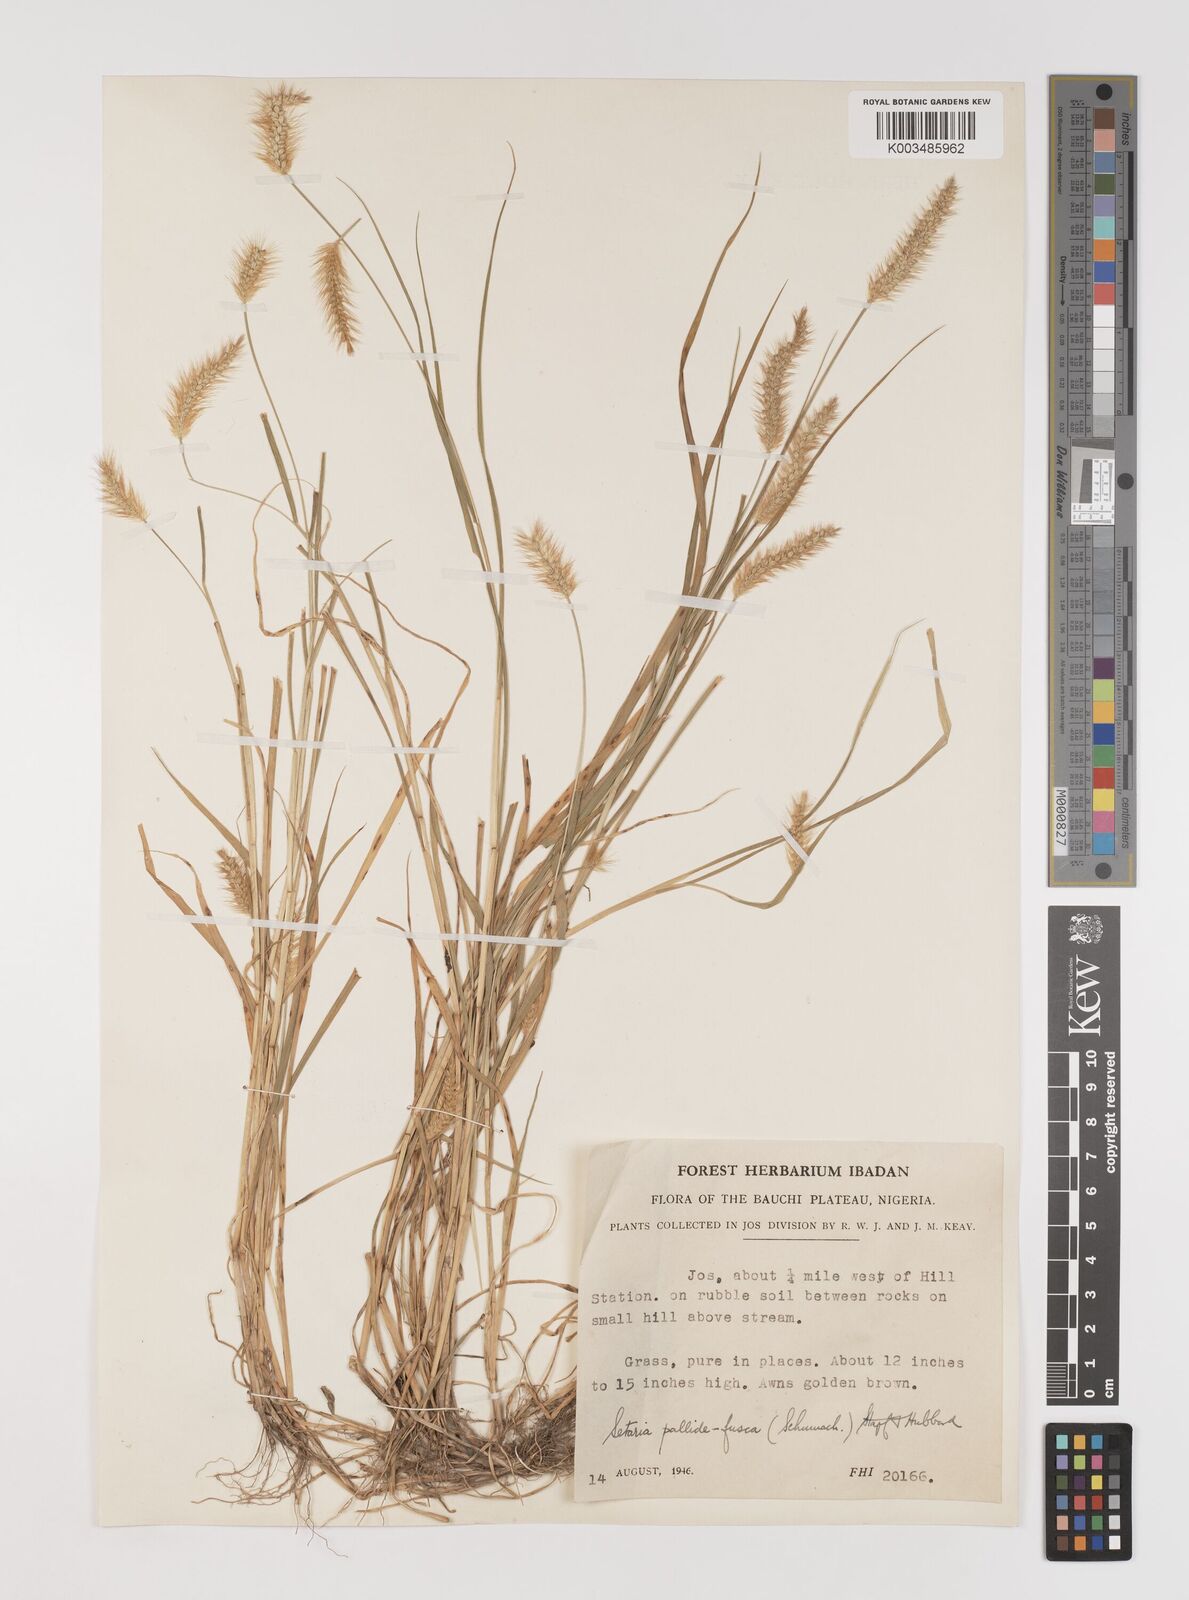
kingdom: Plantae
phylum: Tracheophyta
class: Liliopsida
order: Poales
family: Poaceae
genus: Setaria
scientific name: Setaria pumila
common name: Yellow bristle-grass
